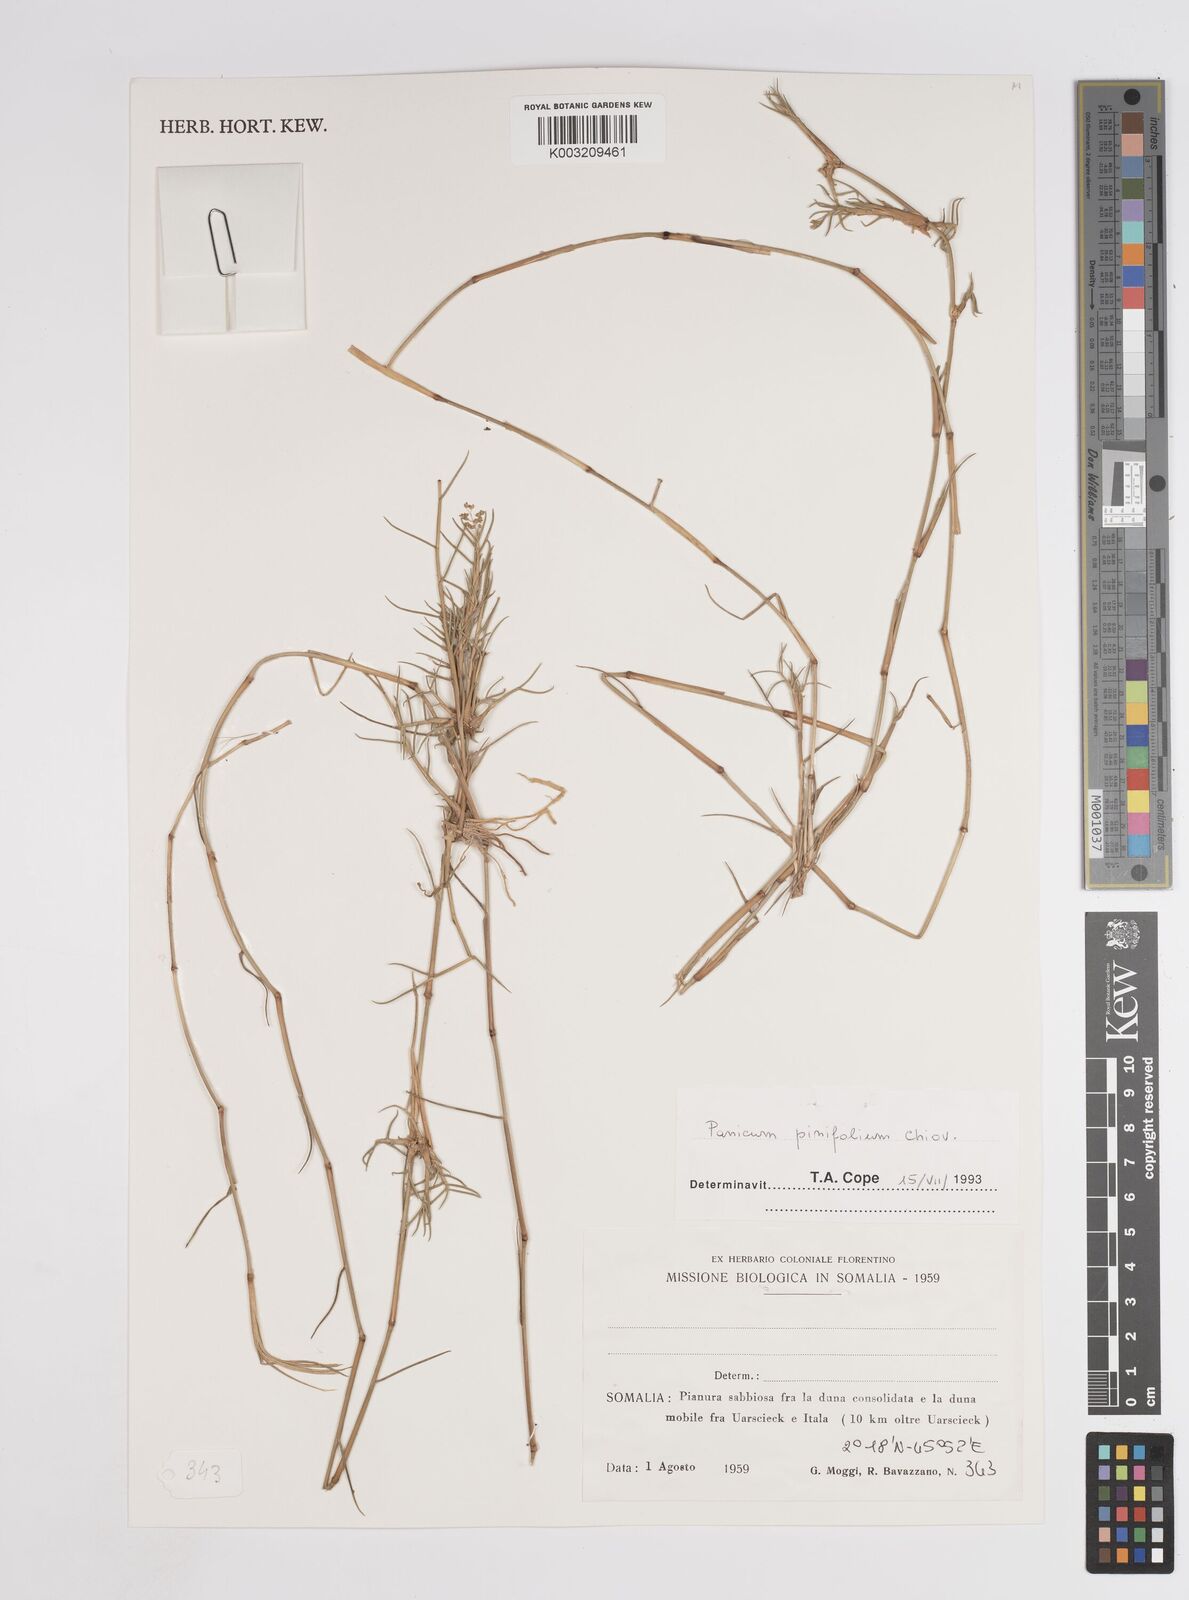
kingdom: Plantae
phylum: Tracheophyta
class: Liliopsida
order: Poales
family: Poaceae
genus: Panicum
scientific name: Panicum pinifolium
